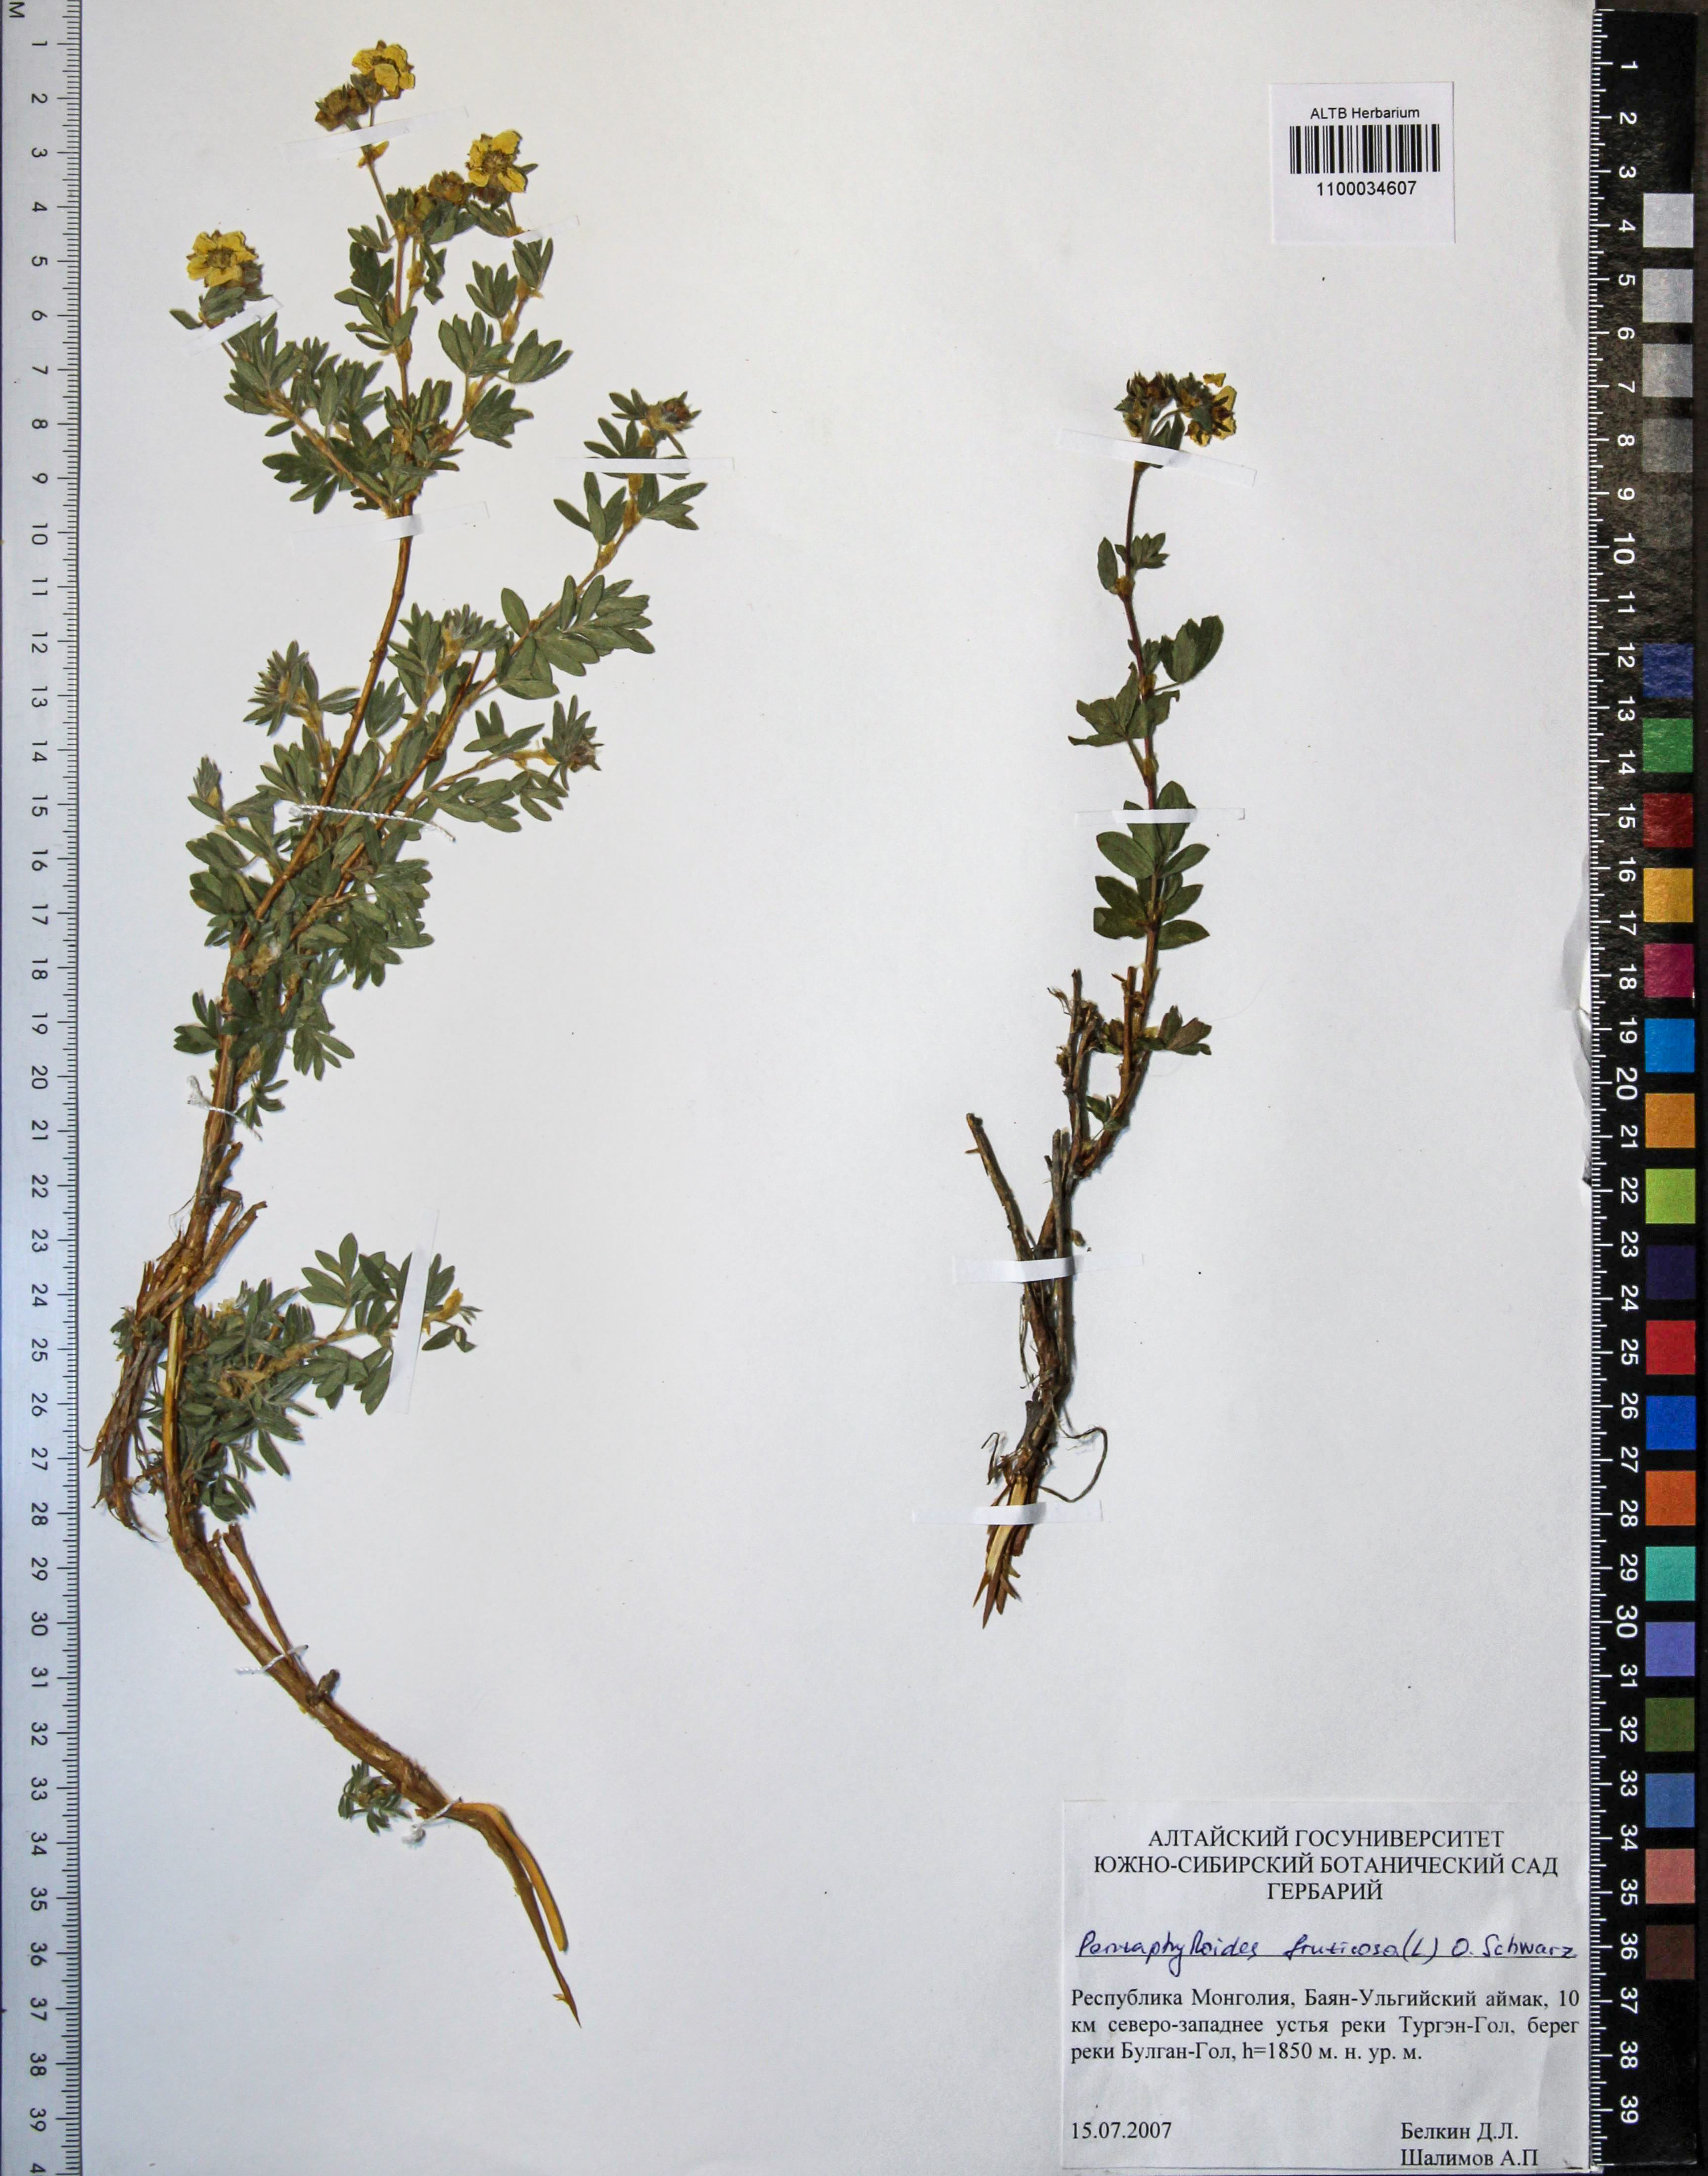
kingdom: Plantae
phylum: Tracheophyta
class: Magnoliopsida
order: Rosales
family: Rosaceae
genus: Dasiphora
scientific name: Dasiphora fruticosa
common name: Shrubby cinquefoil
